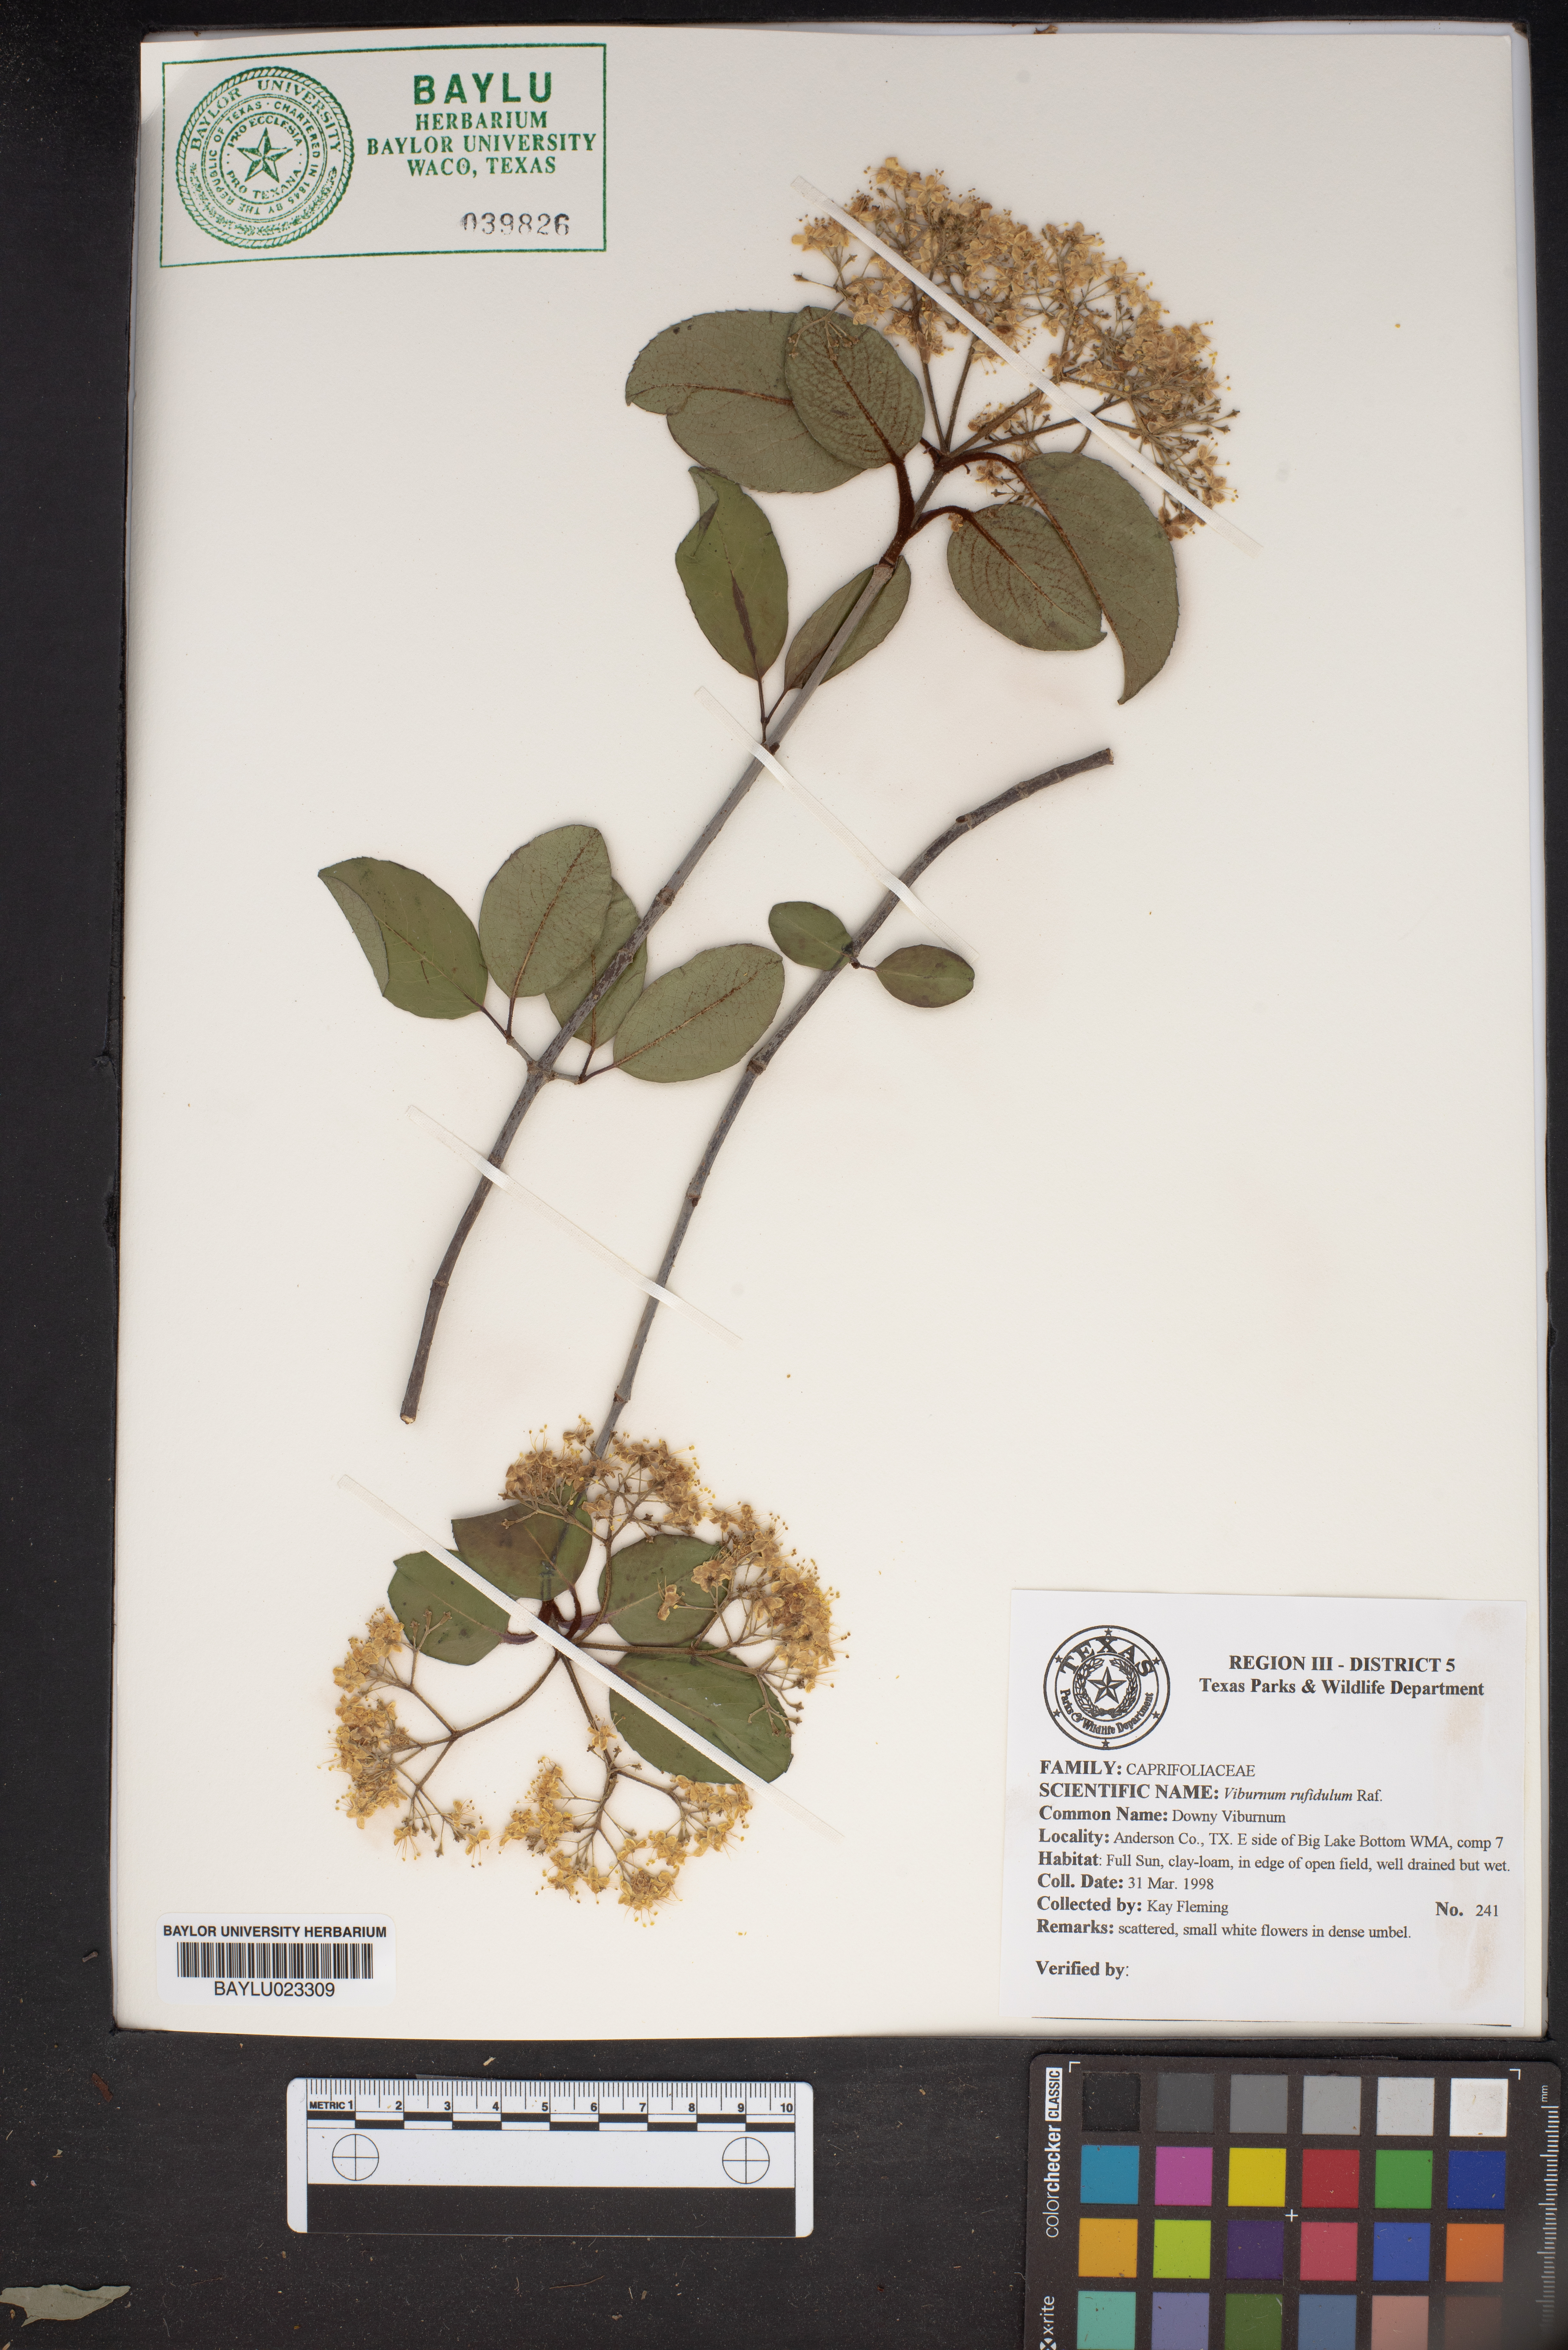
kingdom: Plantae
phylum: Tracheophyta
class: Magnoliopsida
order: Dipsacales
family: Viburnaceae
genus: Viburnum
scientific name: Viburnum rufidulum
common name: Blue haw
